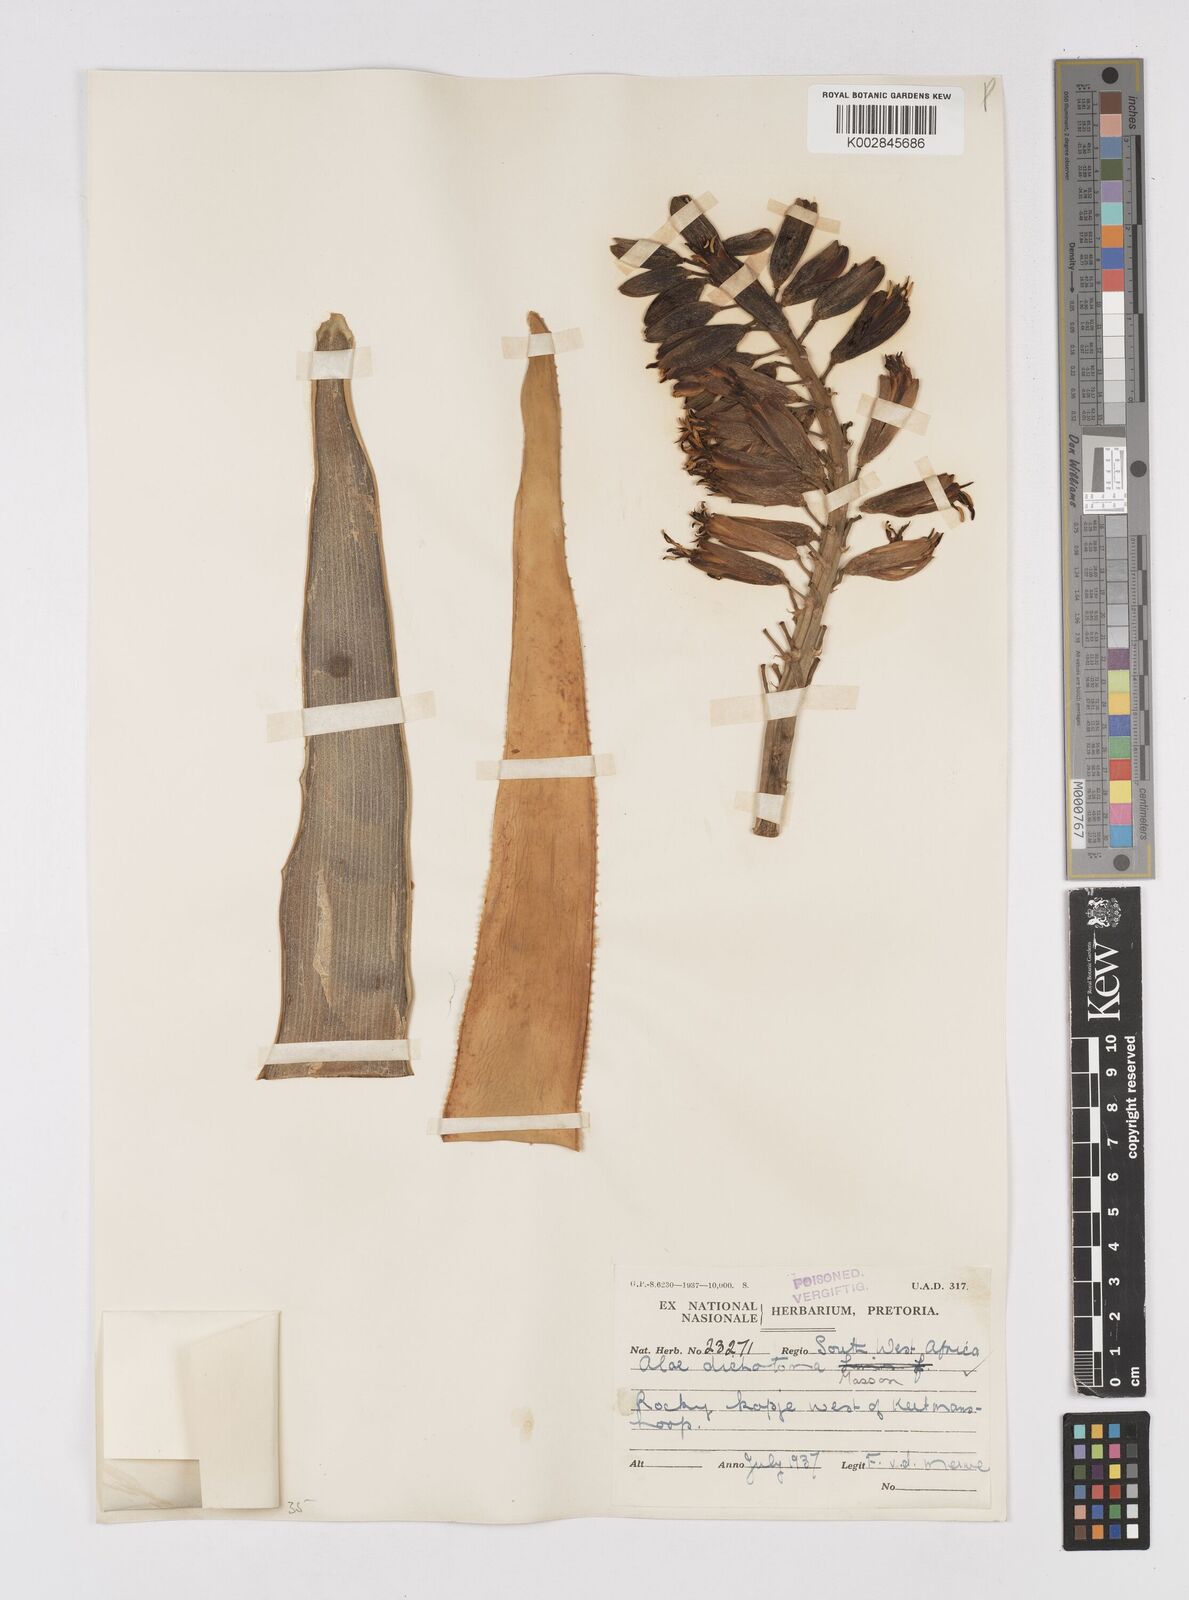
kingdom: Plantae
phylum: Tracheophyta
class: Liliopsida
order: Asparagales
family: Asphodelaceae
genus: Aloidendron
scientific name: Aloidendron dichotomum
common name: Quiver tree
